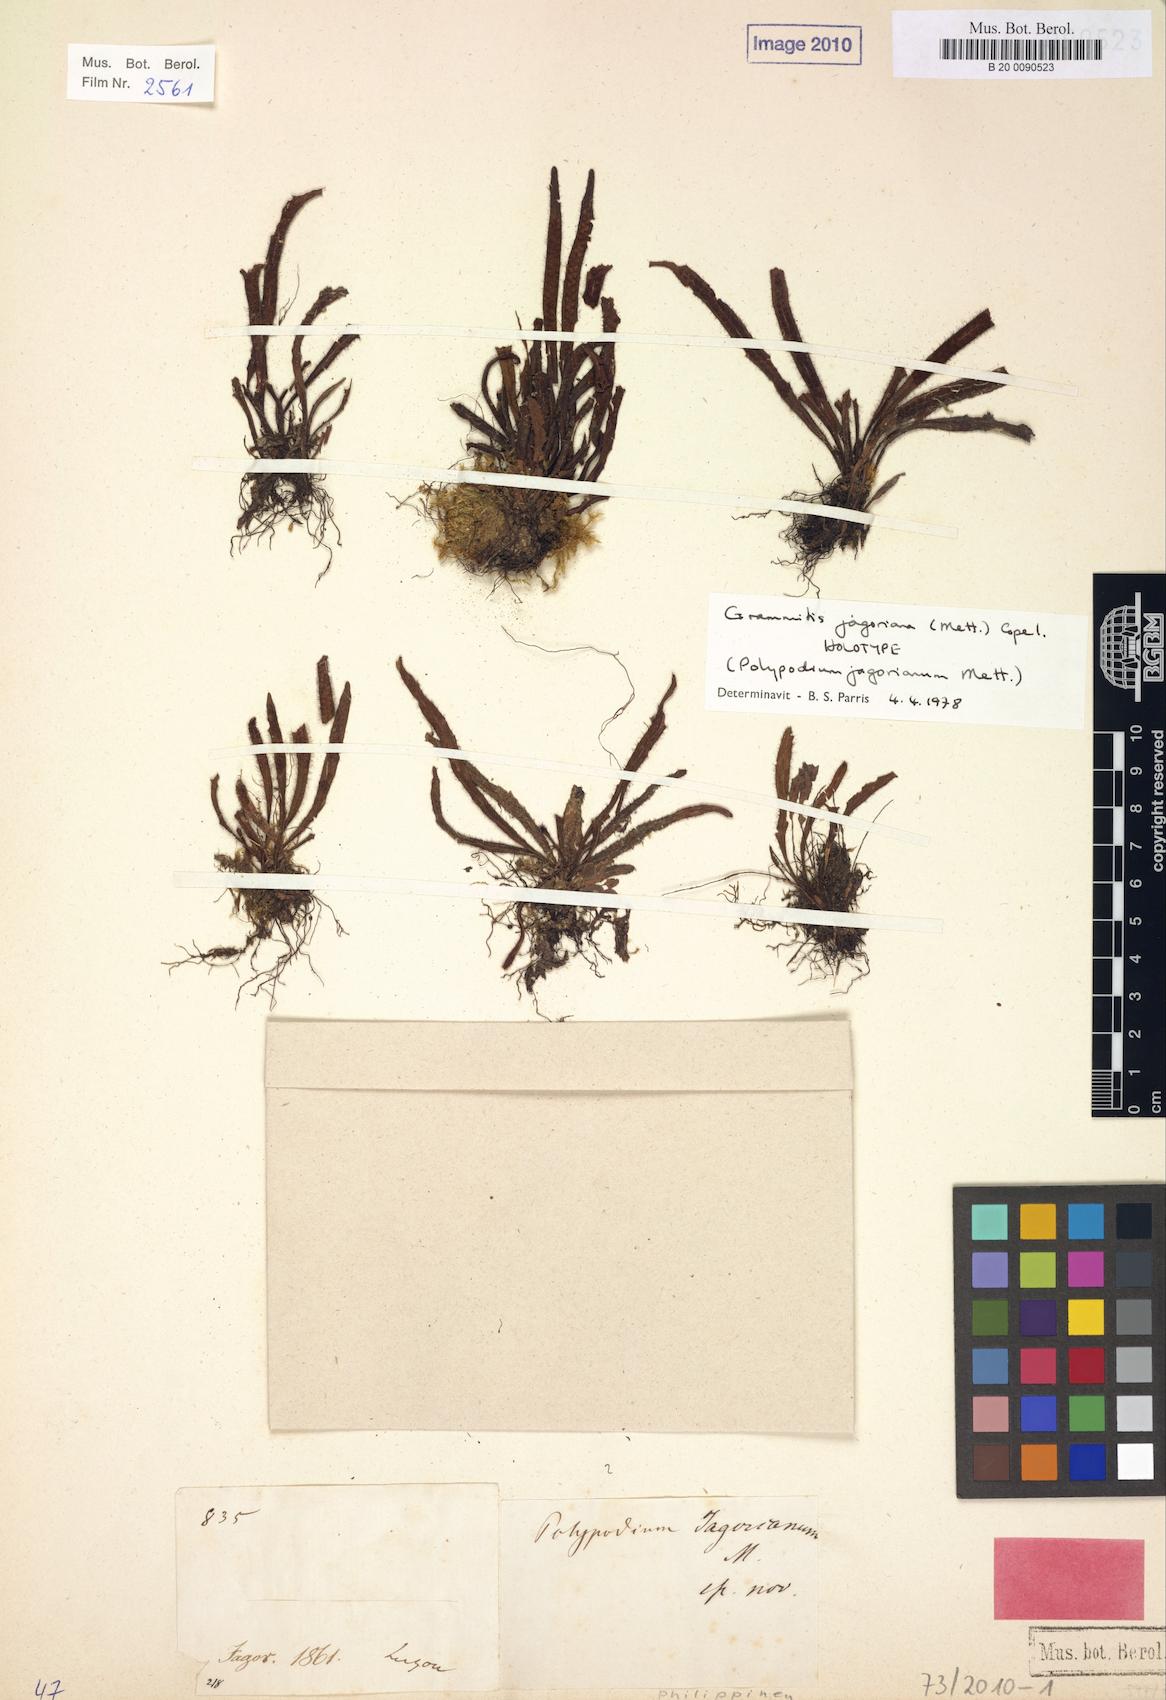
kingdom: Plantae
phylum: Tracheophyta
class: Polypodiopsida
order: Polypodiales
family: Polypodiaceae
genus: Oreogrammitis
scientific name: Oreogrammitis jagoriana
